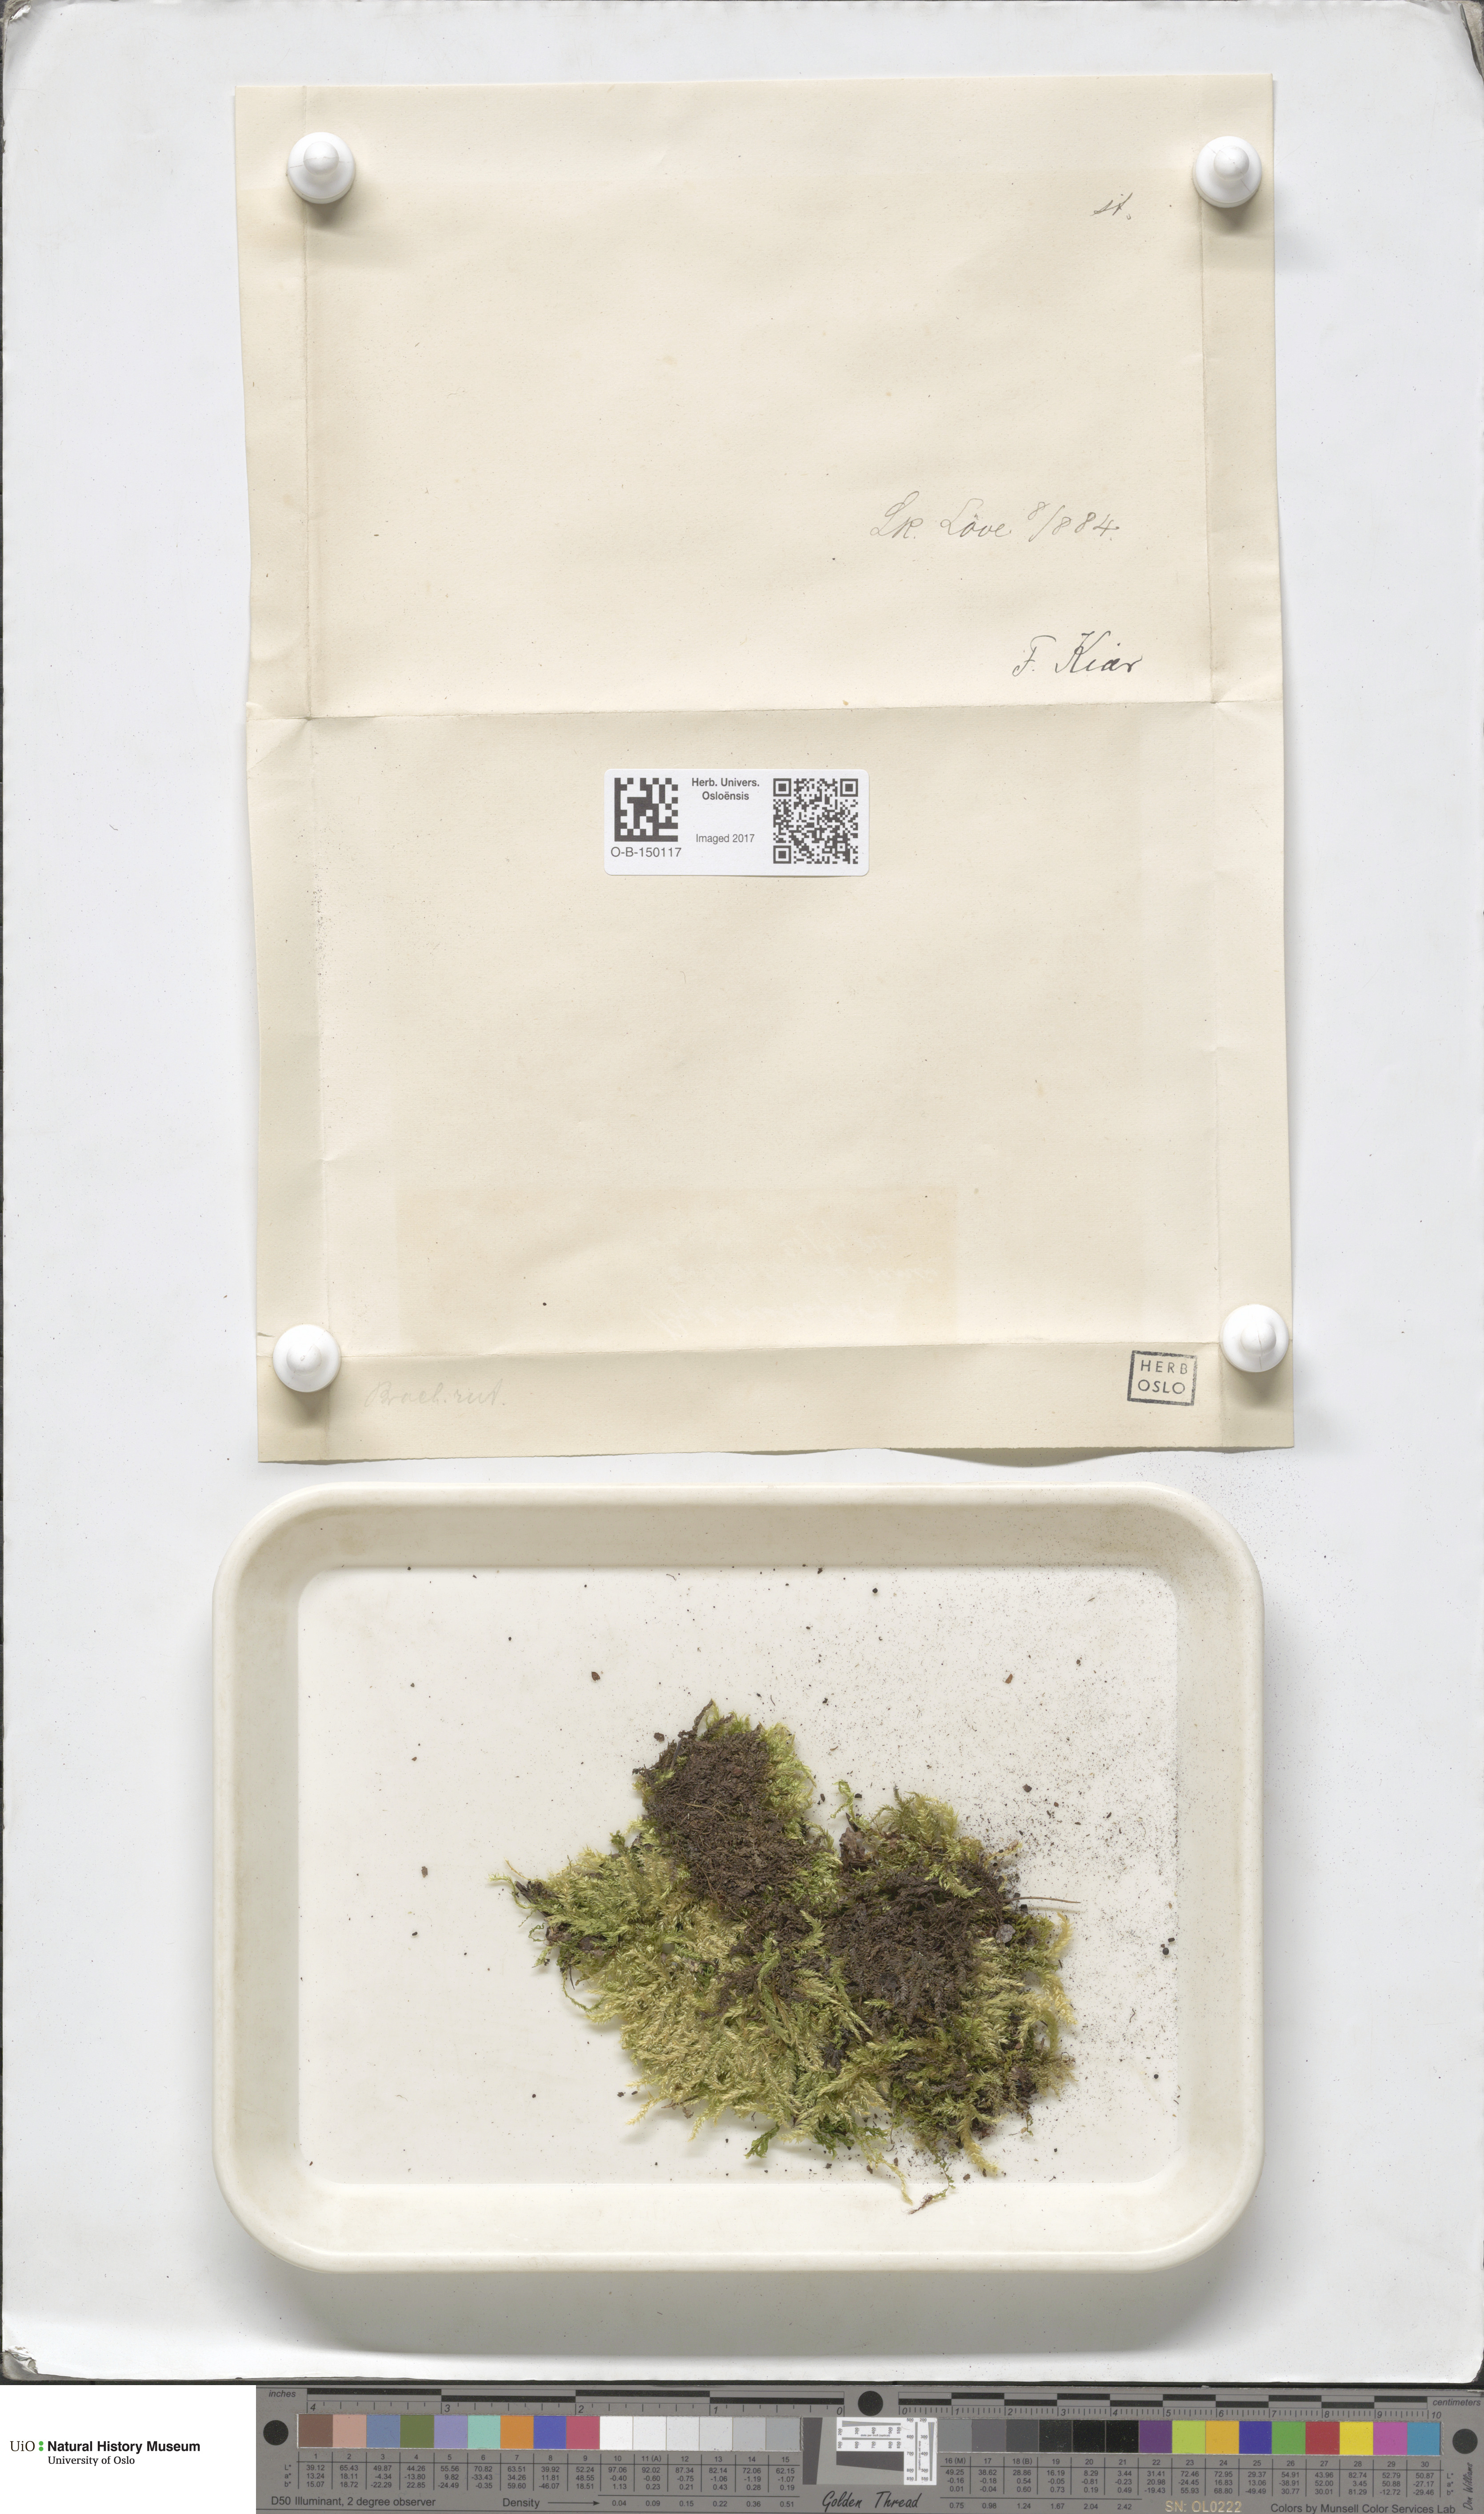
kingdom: Plantae
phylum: Bryophyta
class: Bryopsida
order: Hypnales
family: Brachytheciaceae
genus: Brachythecium
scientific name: Brachythecium rutabulum
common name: Rough-stalked feather-moss
